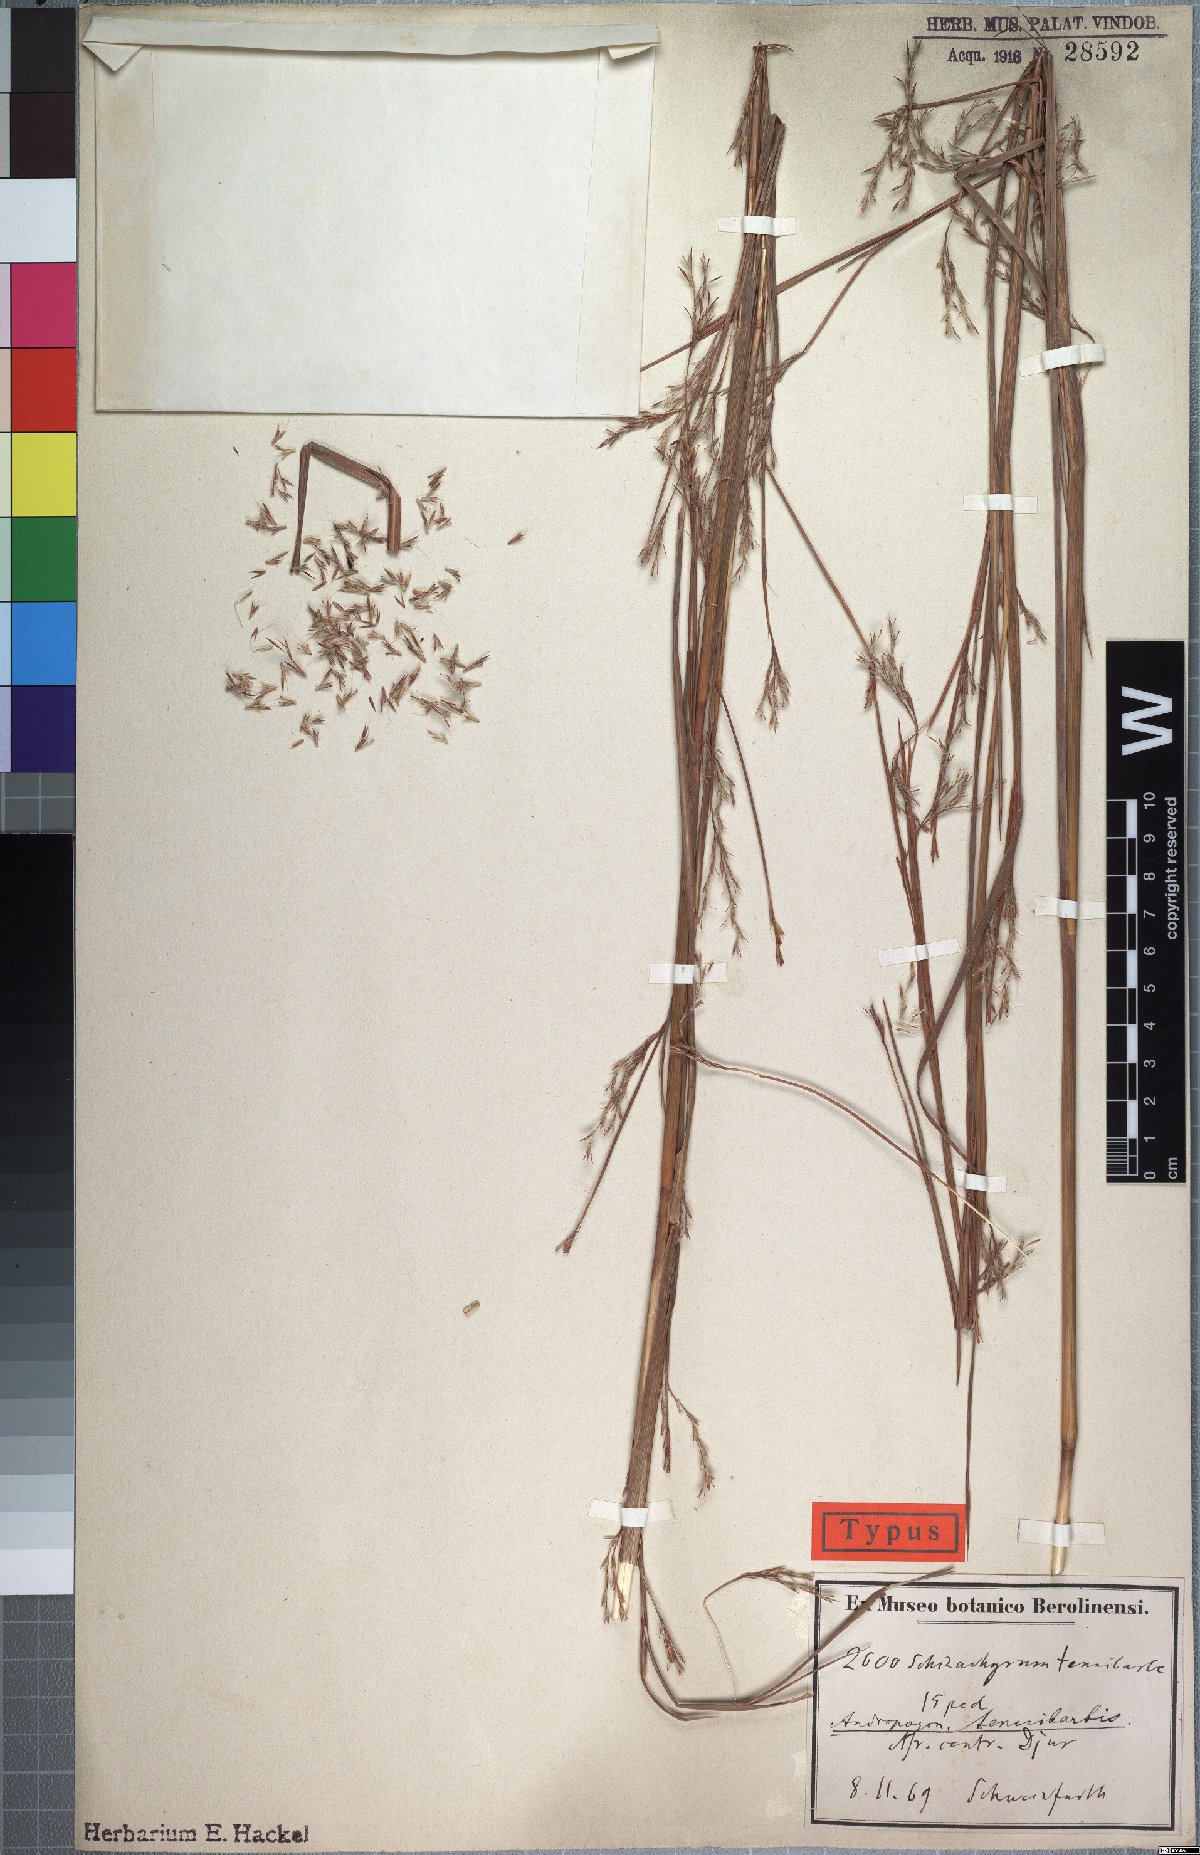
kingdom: Plantae
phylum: Tracheophyta
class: Liliopsida
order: Poales
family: Poaceae
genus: Andropogon
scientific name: Andropogon tenuiberbis
